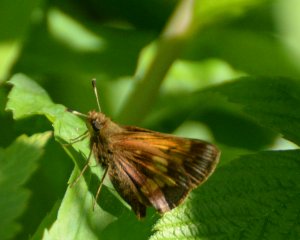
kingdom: Animalia
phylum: Arthropoda
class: Insecta
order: Lepidoptera
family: Hesperiidae
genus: Lon
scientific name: Lon hobomok
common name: Hobomok Skipper
